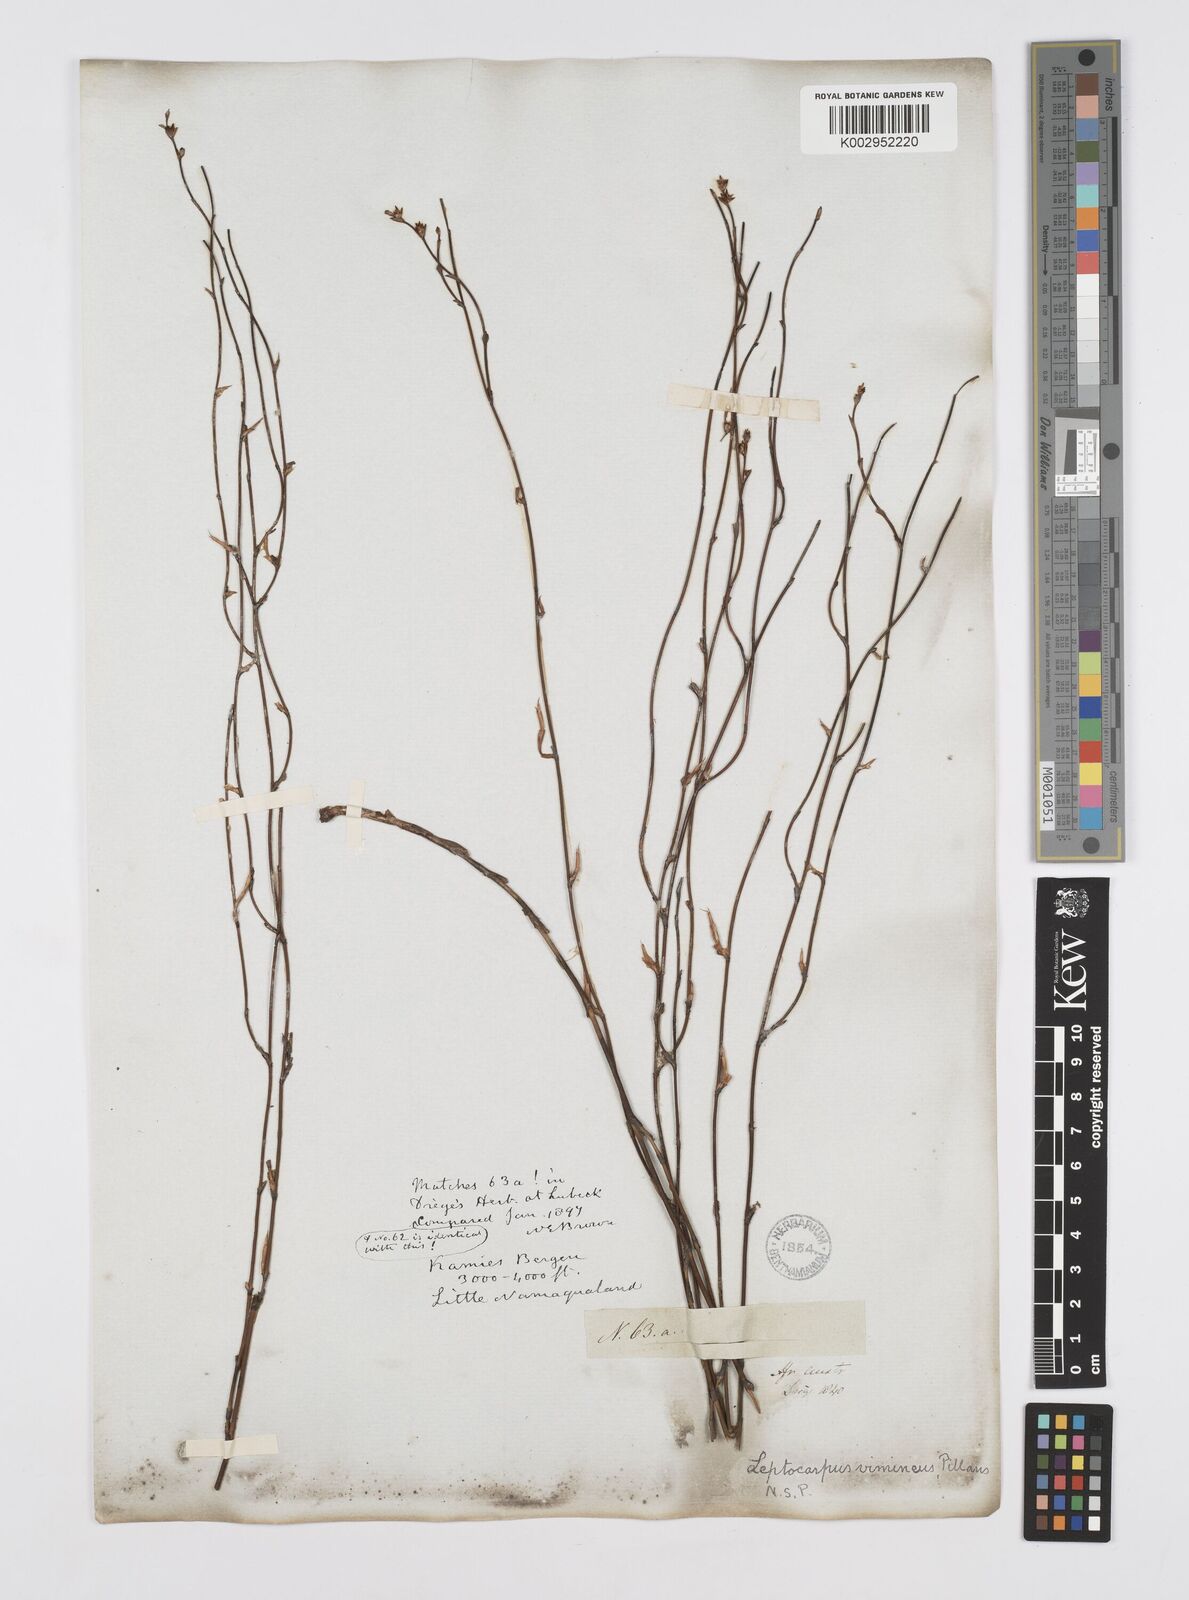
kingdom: Plantae
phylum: Tracheophyta
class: Liliopsida
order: Poales
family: Restionaceae
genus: Restio
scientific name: Restio vimineus
